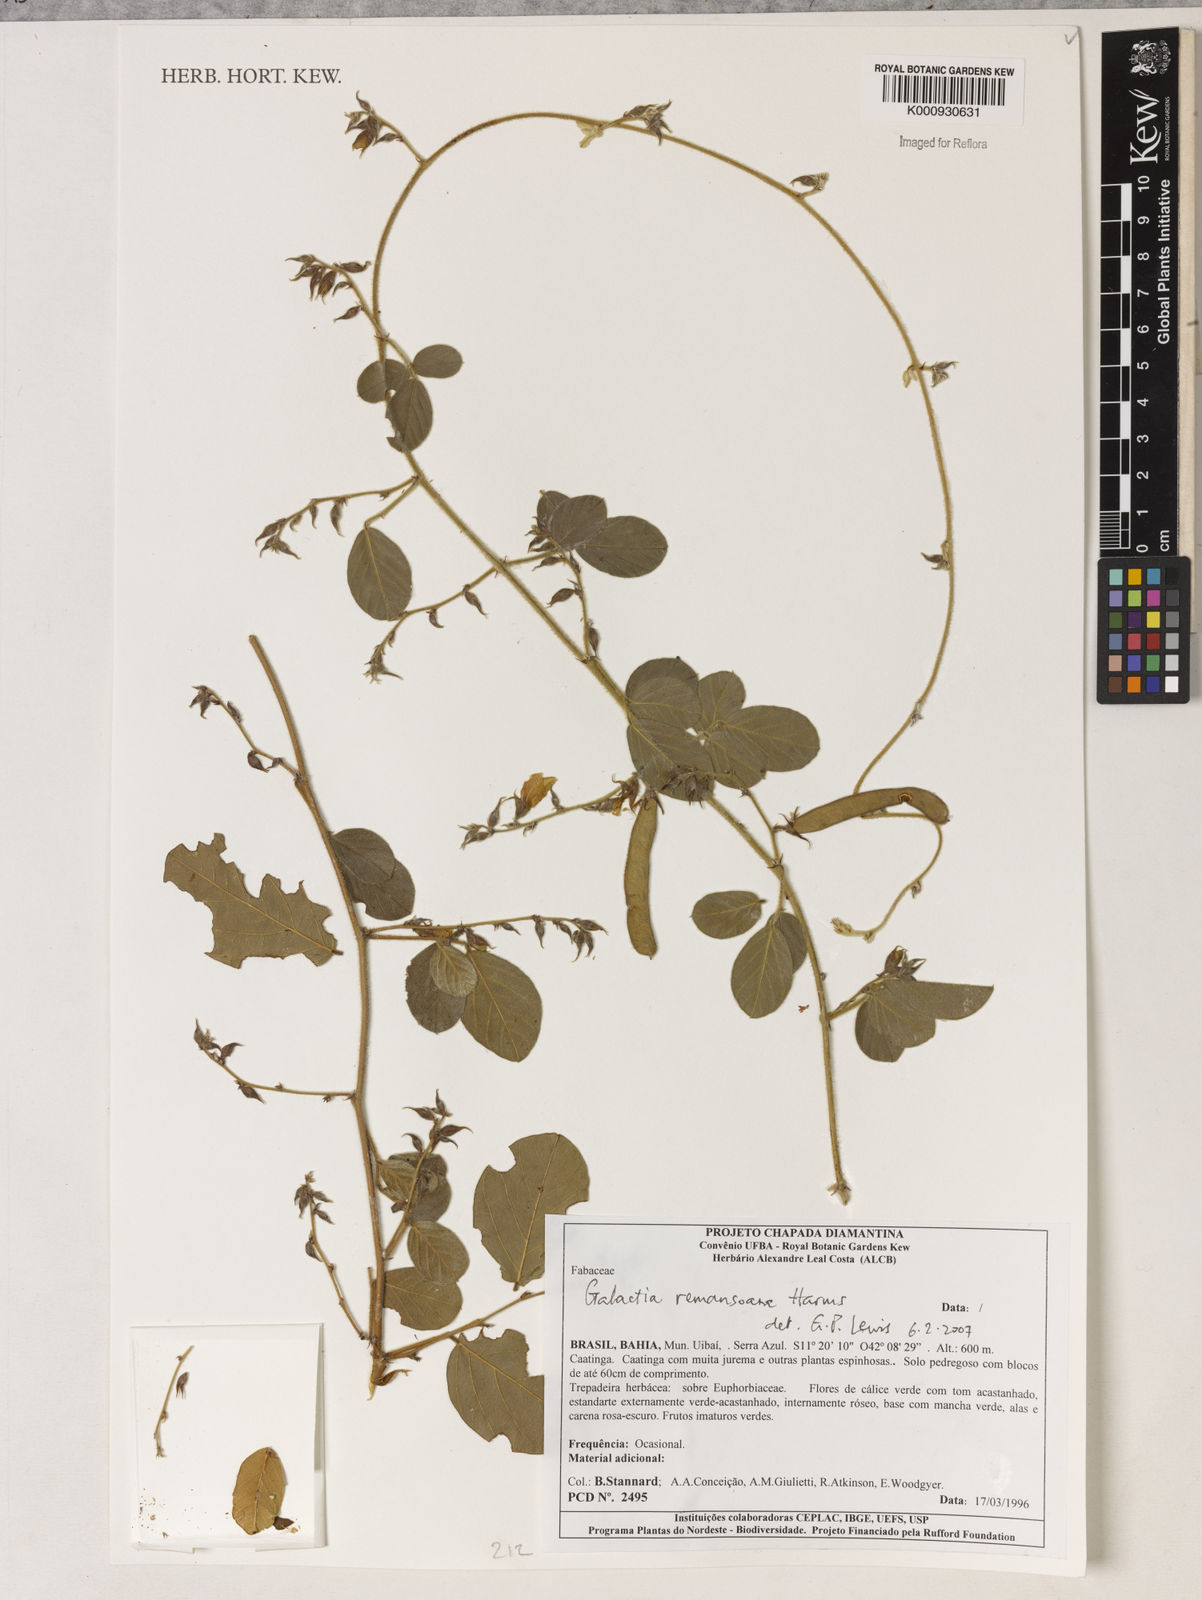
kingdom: Plantae
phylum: Tracheophyta
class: Magnoliopsida
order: Fabales
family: Fabaceae
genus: Galactia
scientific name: Galactia remansoana
